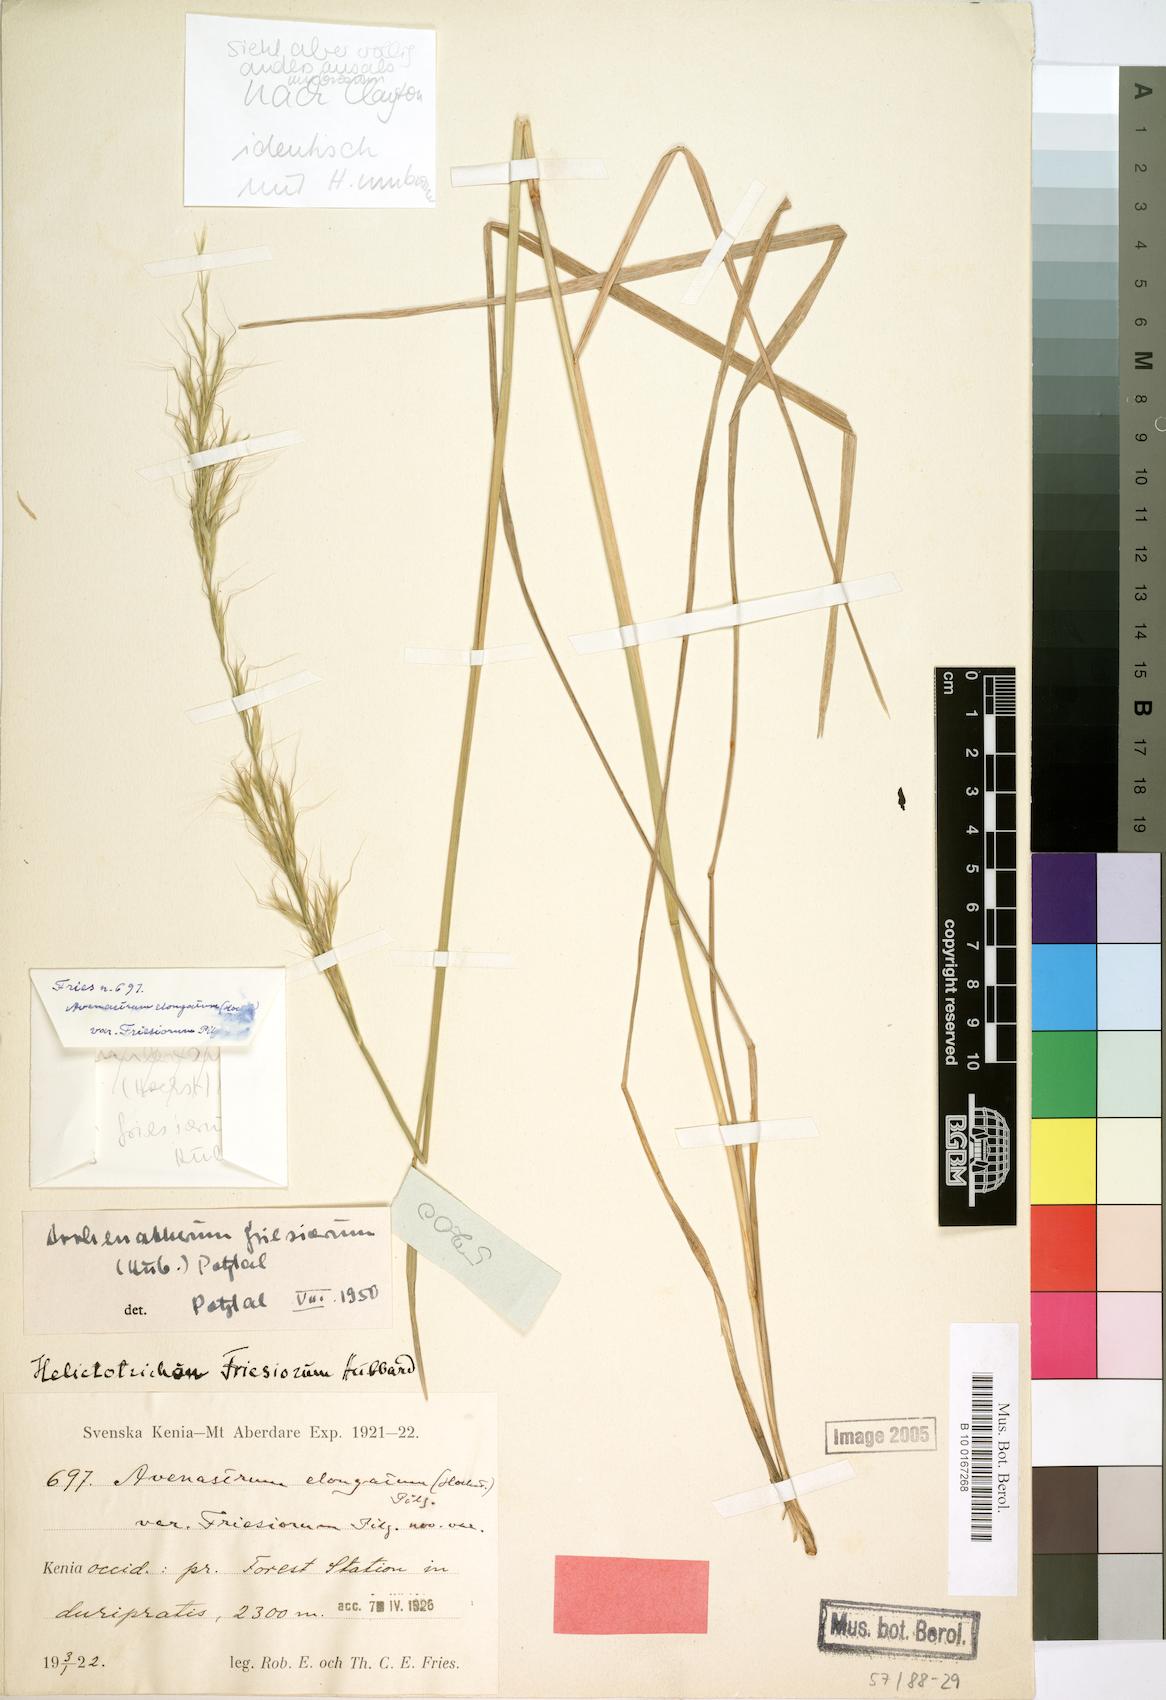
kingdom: Plantae
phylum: Tracheophyta
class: Liliopsida
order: Poales
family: Poaceae
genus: Trisetopsis
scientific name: Trisetopsis umbrosa
